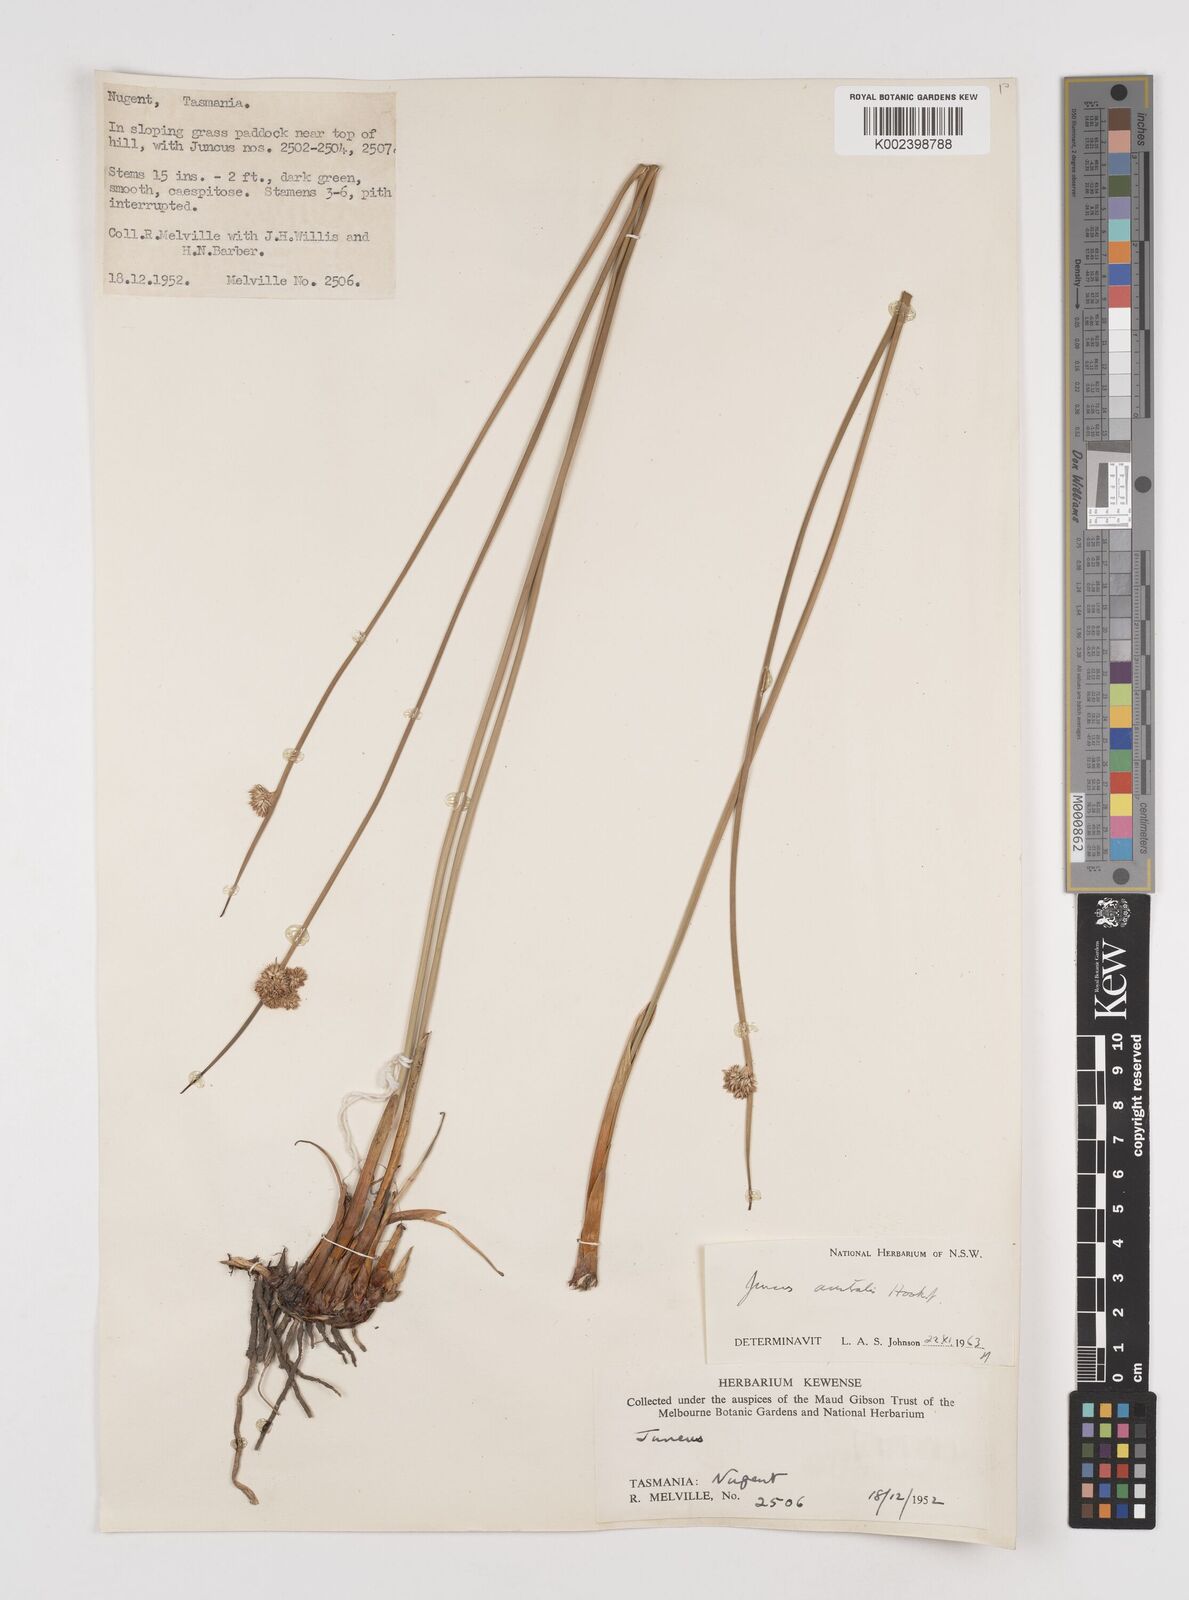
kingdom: Plantae
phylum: Tracheophyta
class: Liliopsida
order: Poales
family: Juncaceae
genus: Juncus
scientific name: Juncus australis
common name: Austral rush
